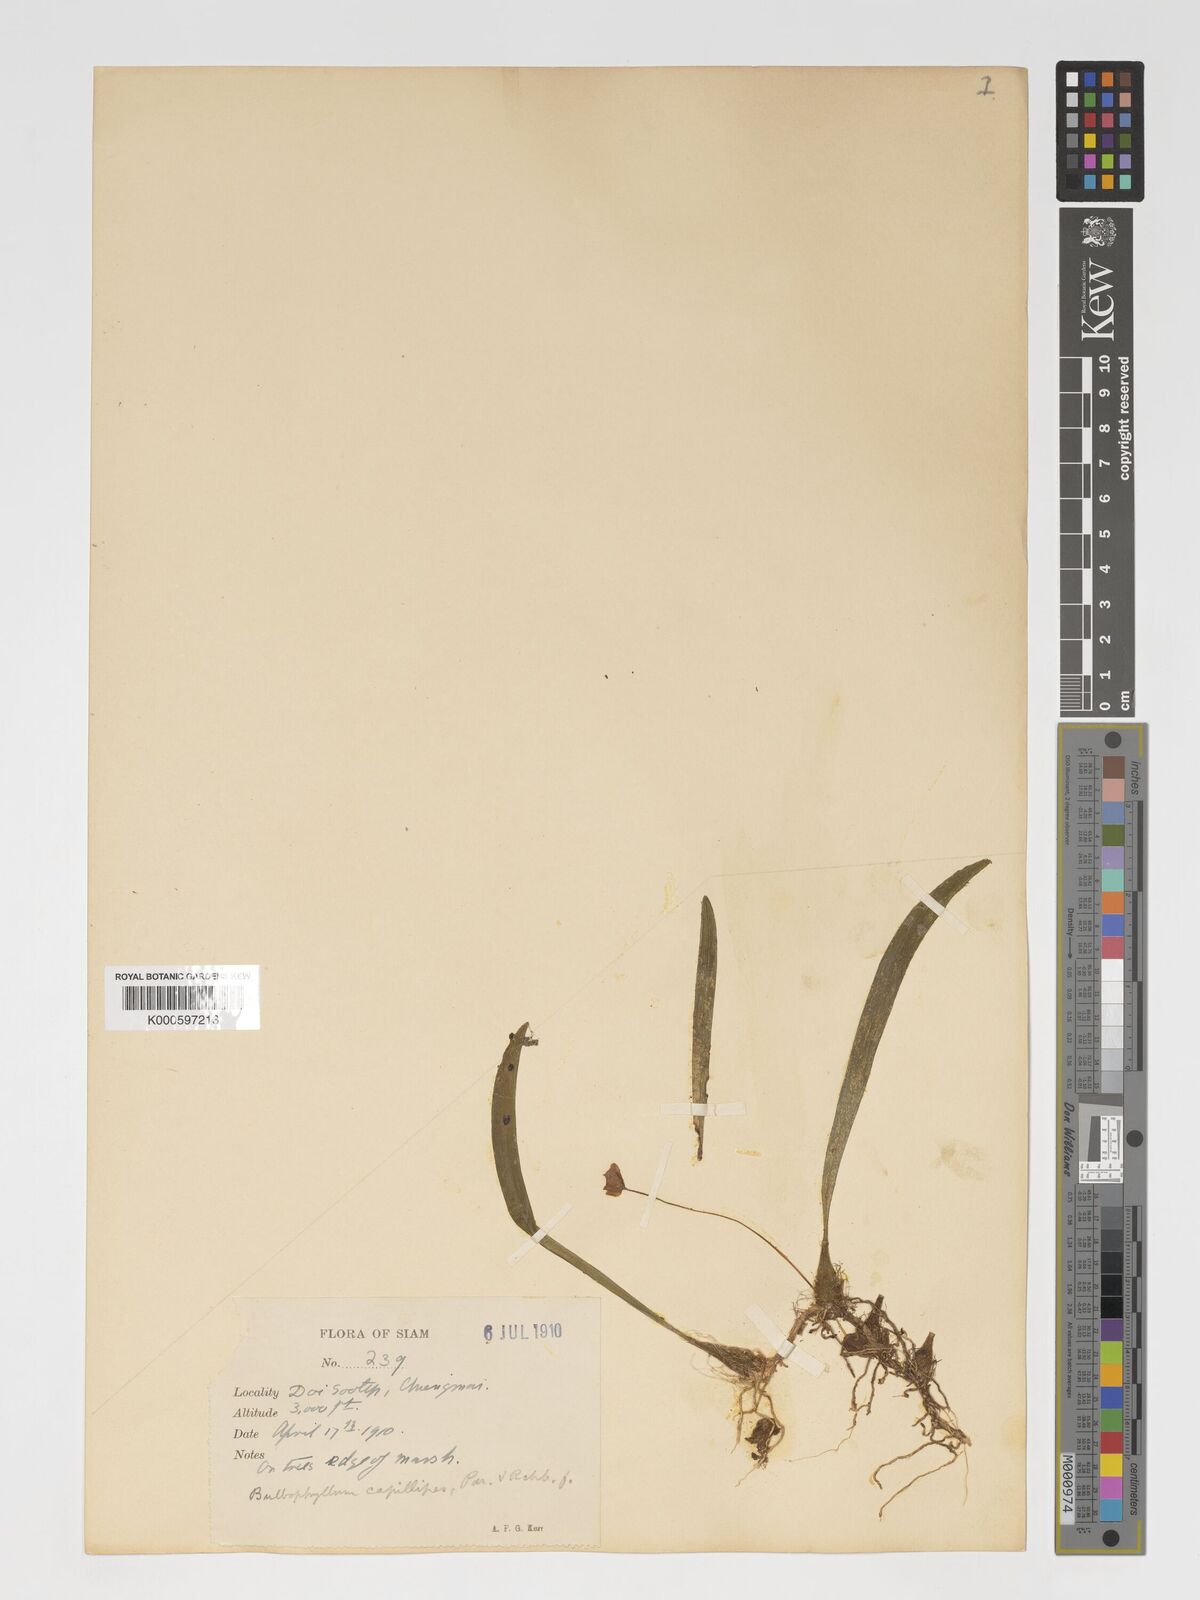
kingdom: Plantae
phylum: Tracheophyta
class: Liliopsida
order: Asparagales
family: Orchidaceae
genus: Bulbophyllum
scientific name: Bulbophyllum capillipes
